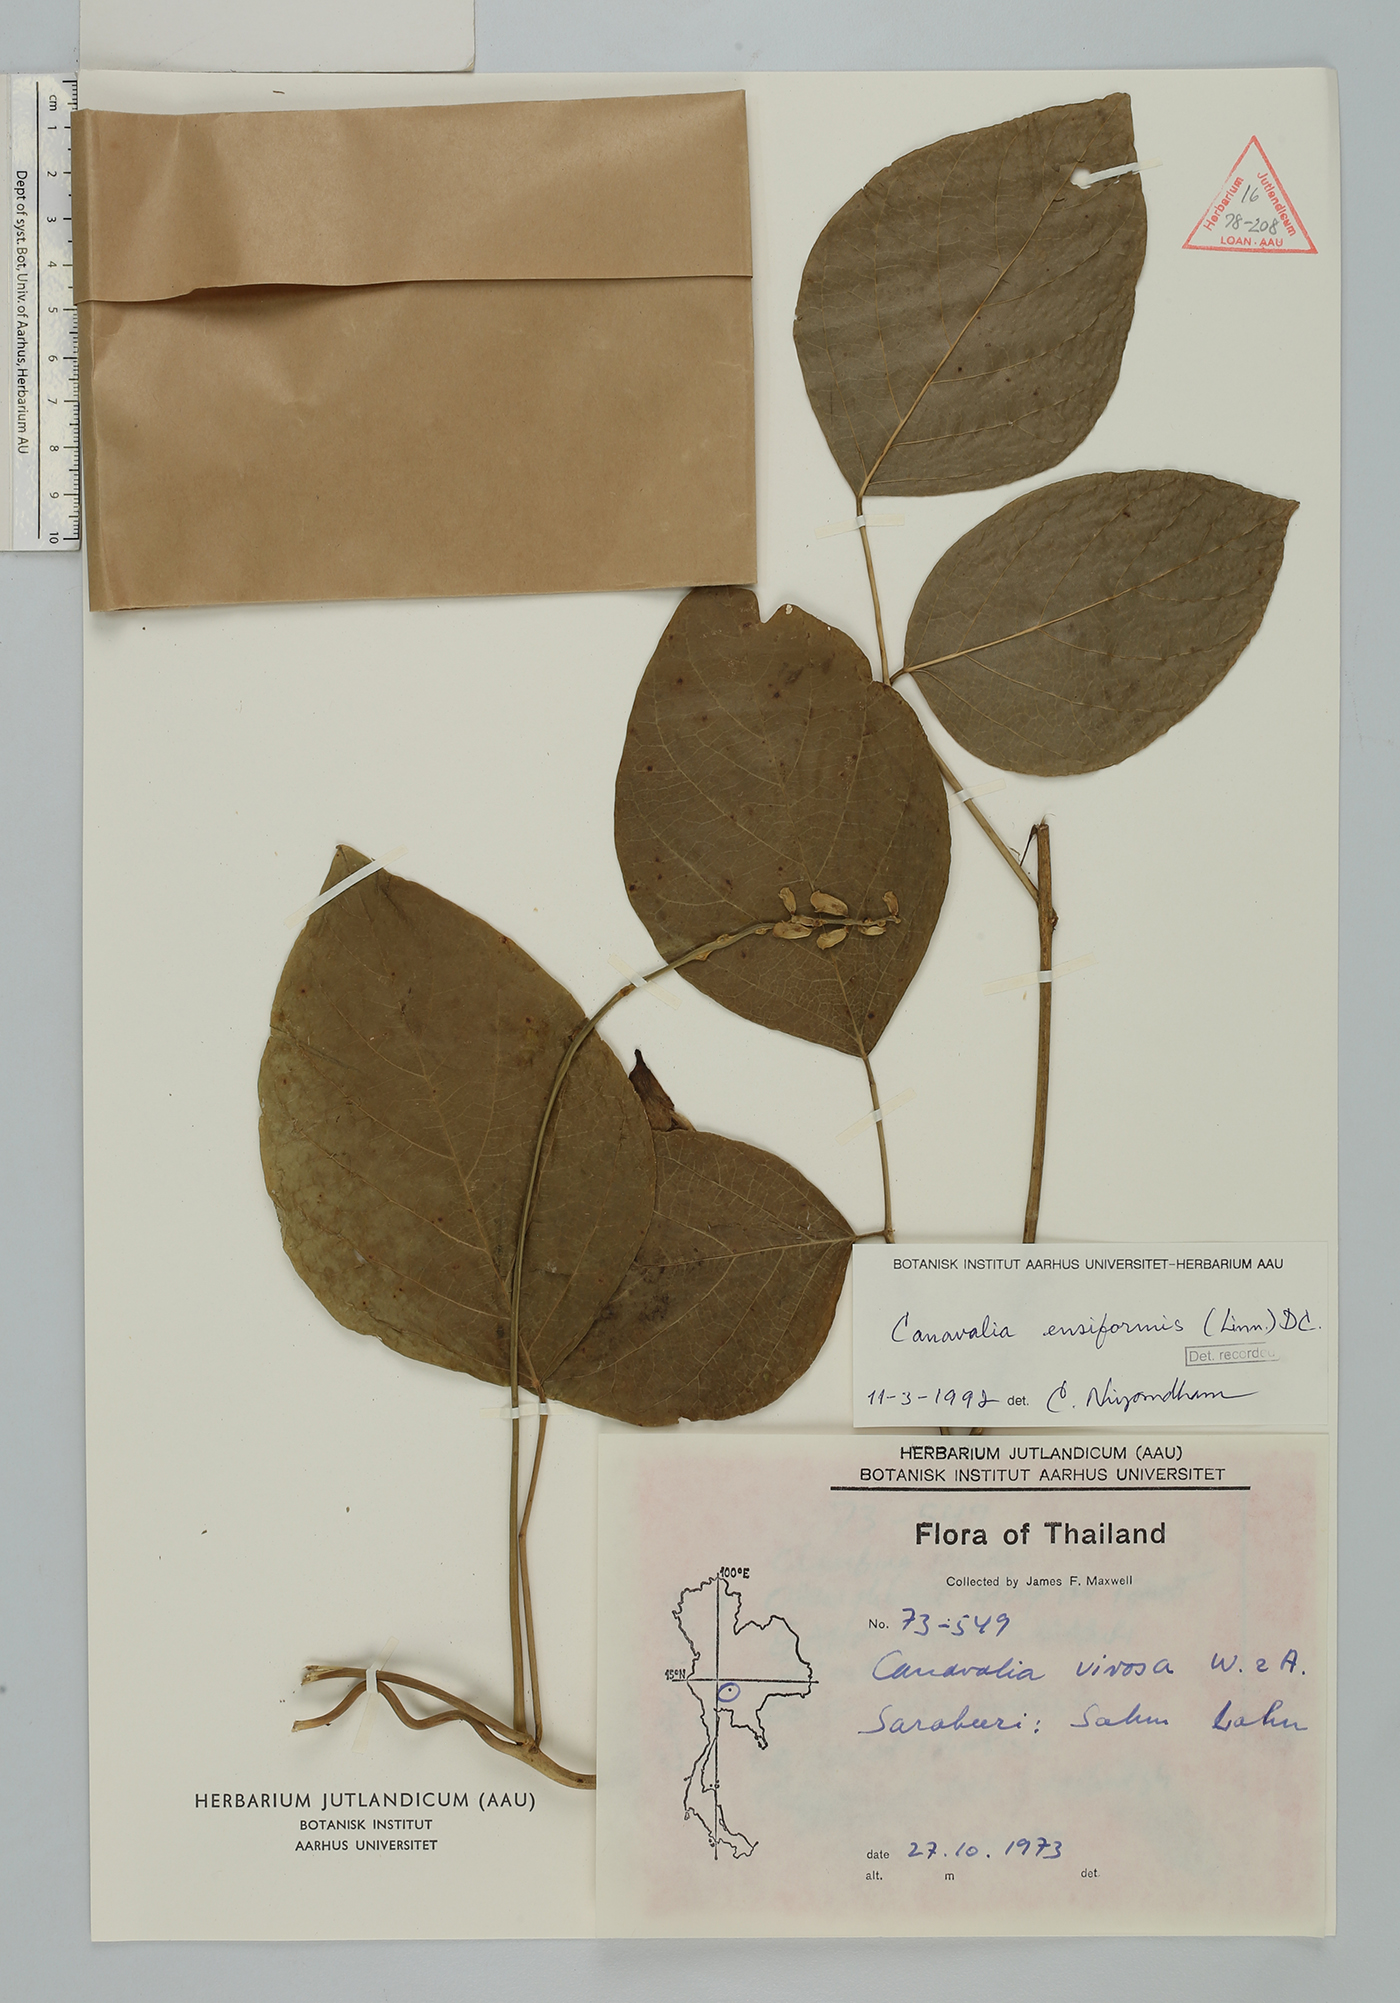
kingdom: Plantae
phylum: Tracheophyta
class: Magnoliopsida
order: Fabales
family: Fabaceae
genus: Canavalia
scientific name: Canavalia cathartica
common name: Maunaloa
